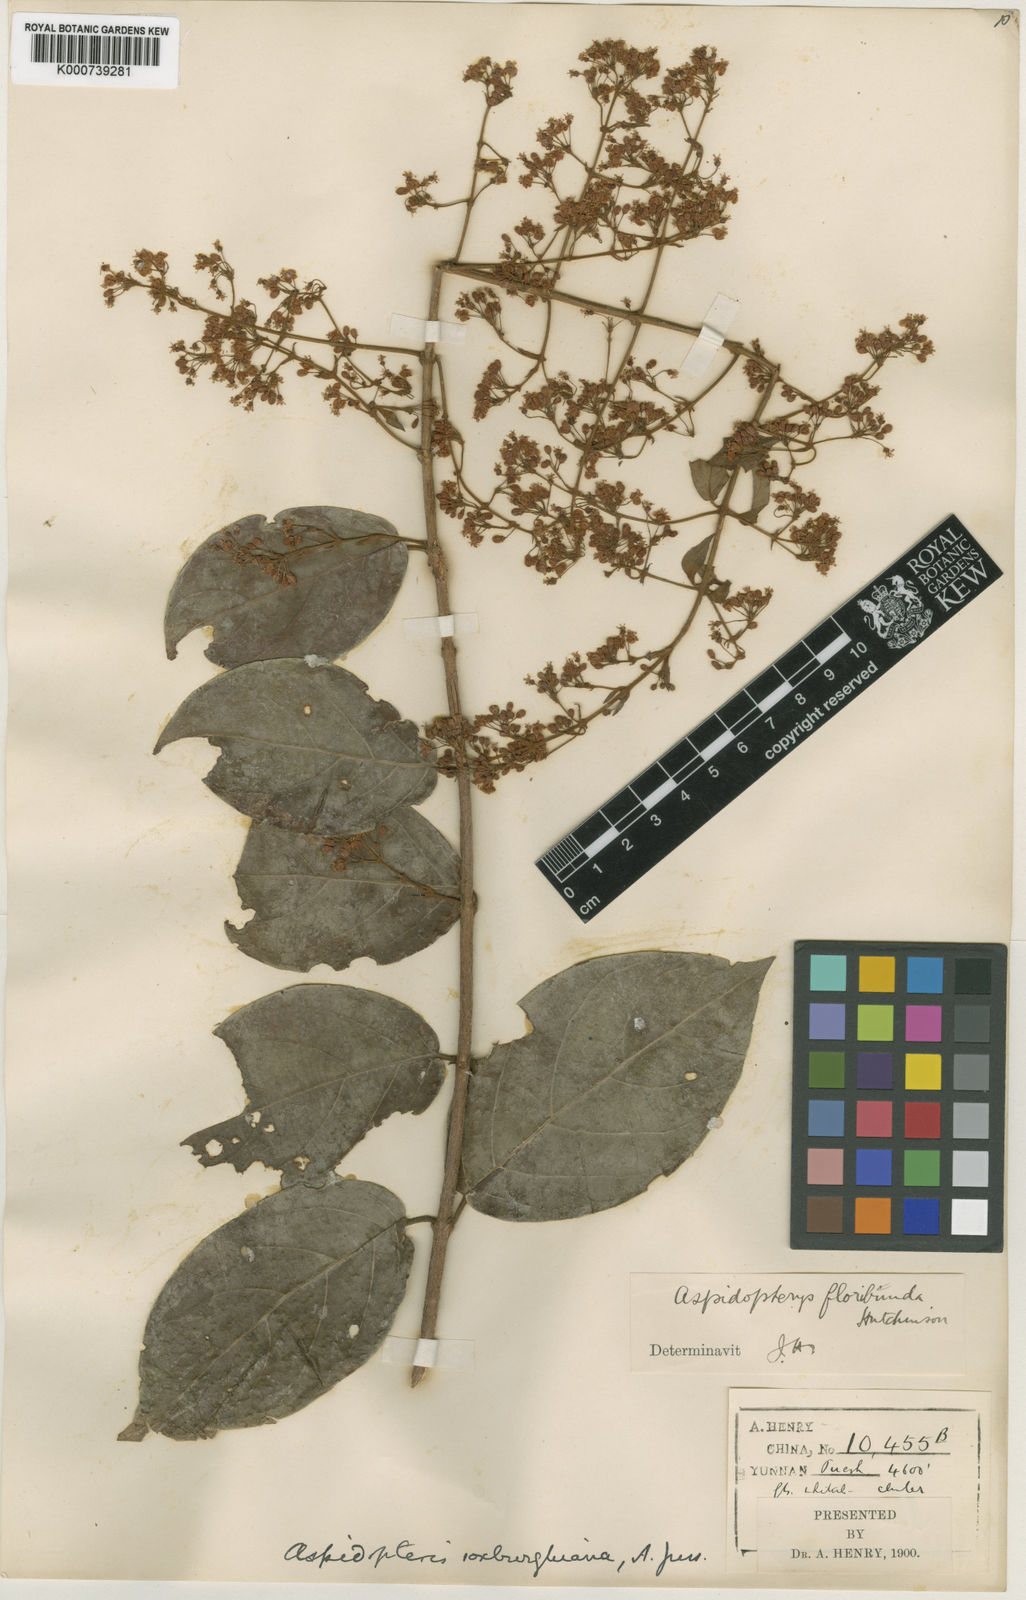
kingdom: Plantae
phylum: Tracheophyta
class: Magnoliopsida
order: Malpighiales
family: Malpighiaceae
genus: Aspidopterys
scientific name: Aspidopterys glabriuscula
